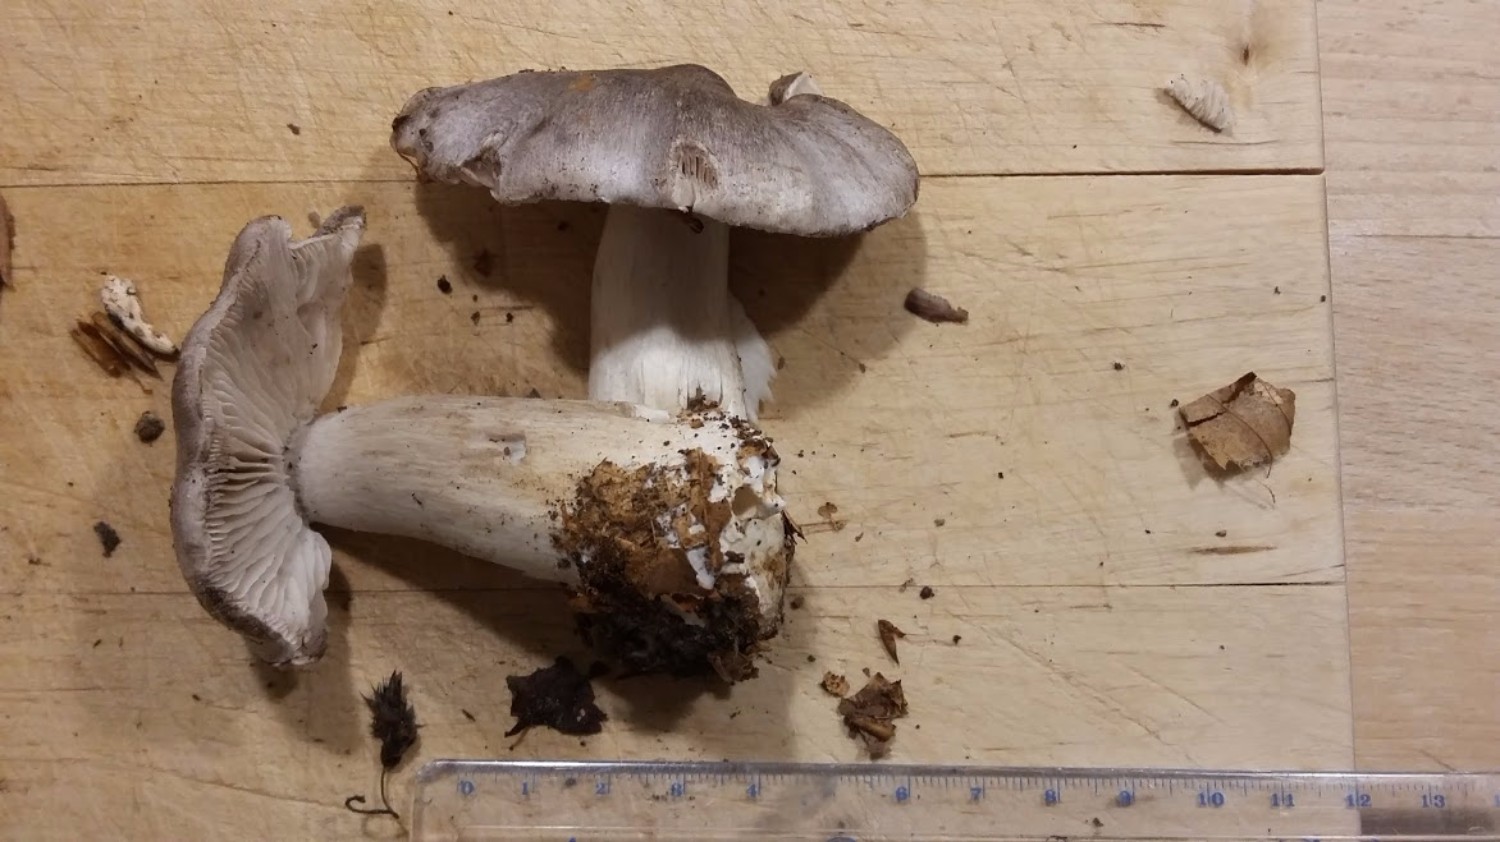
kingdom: Fungi
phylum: Basidiomycota
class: Agaricomycetes
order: Agaricales
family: Tricholomataceae
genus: Tricholoma
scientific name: Tricholoma sciodes
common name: stribet ridderhat
